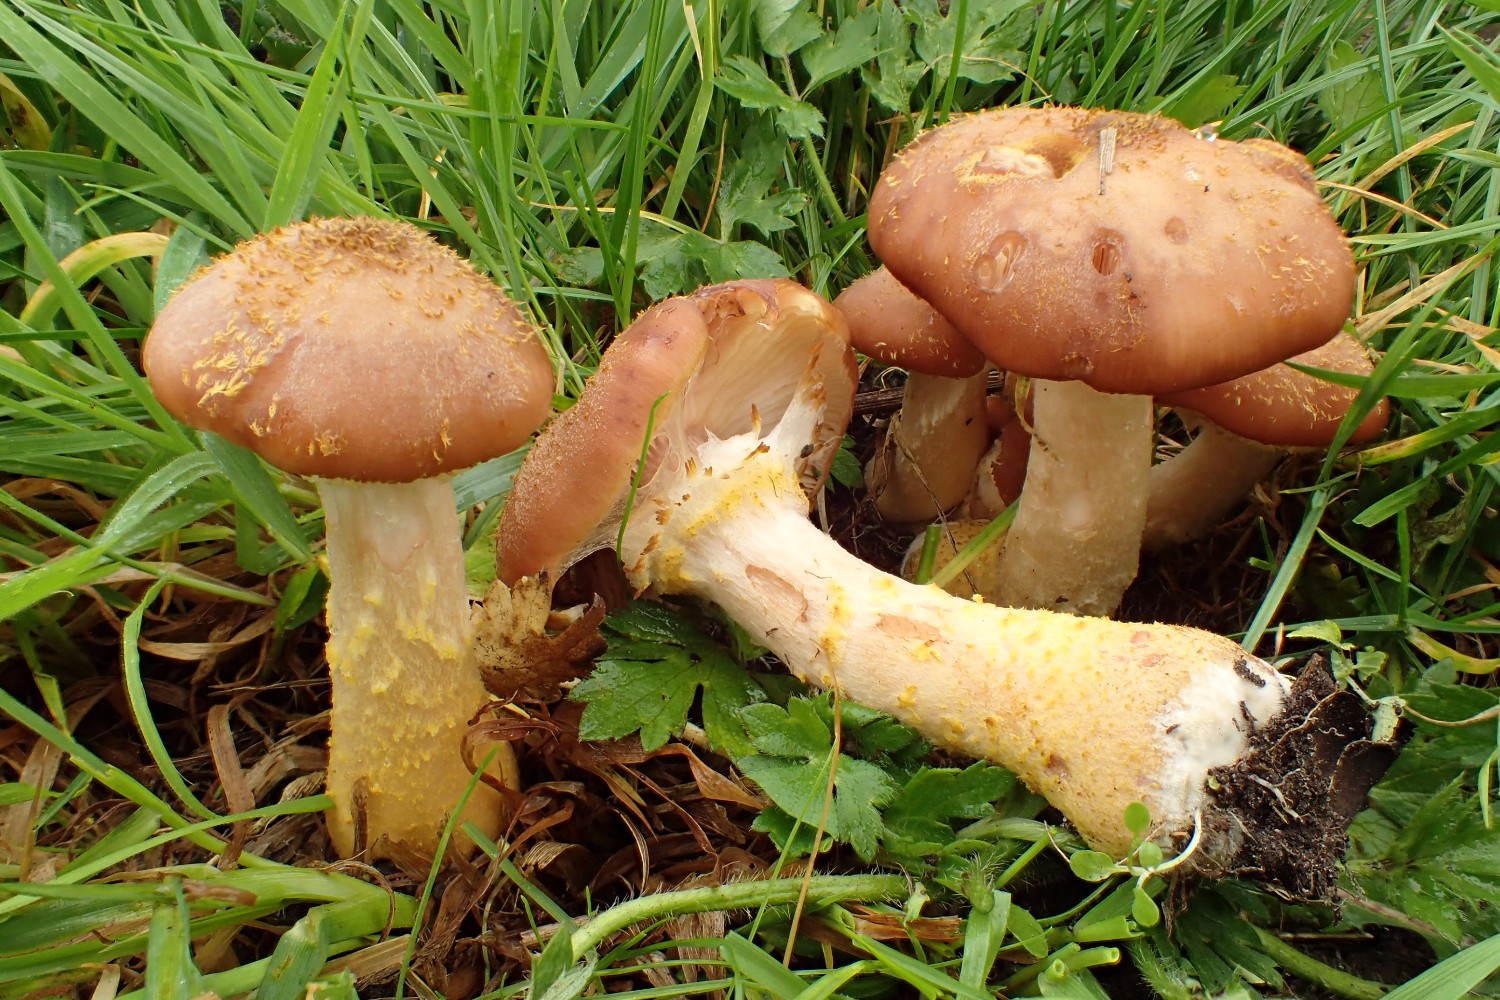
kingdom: Fungi
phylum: Basidiomycota
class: Agaricomycetes
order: Agaricales
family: Physalacriaceae
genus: Armillaria
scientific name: Armillaria lutea
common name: køllestokket honningsvamp
